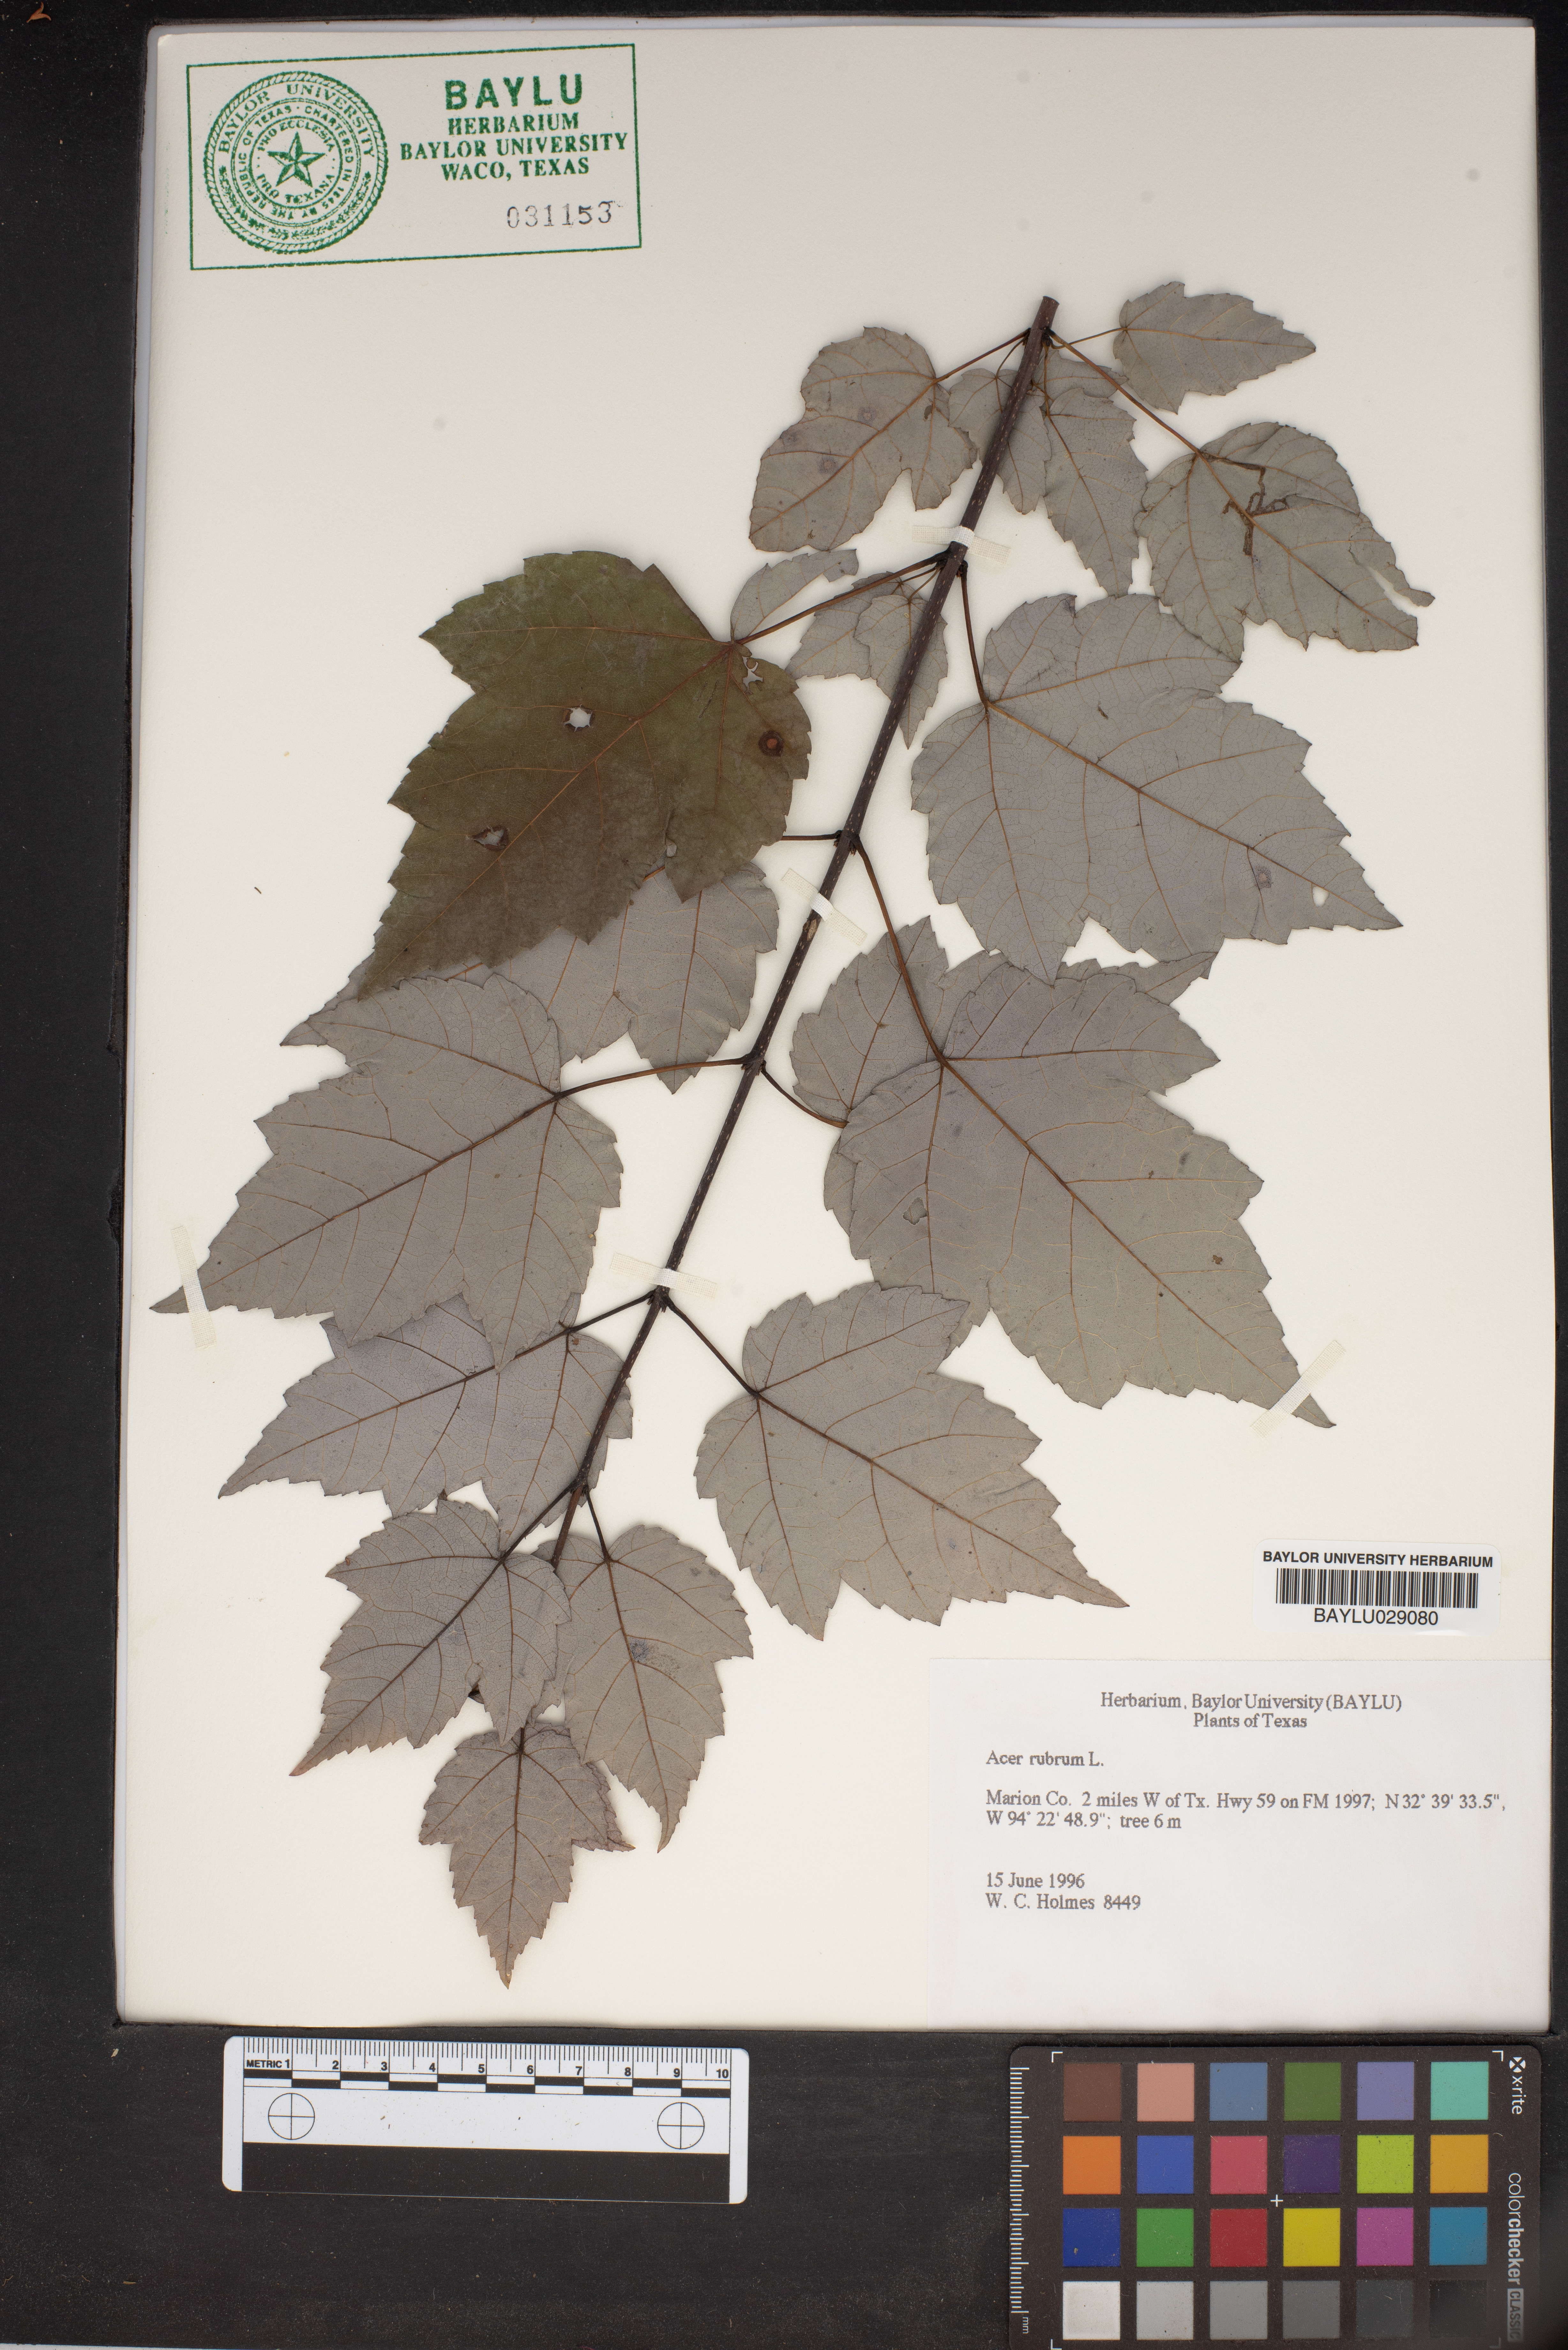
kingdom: Plantae
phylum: Tracheophyta
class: Magnoliopsida
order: Sapindales
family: Sapindaceae
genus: Acer
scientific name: Acer rubrum
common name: Red maple
